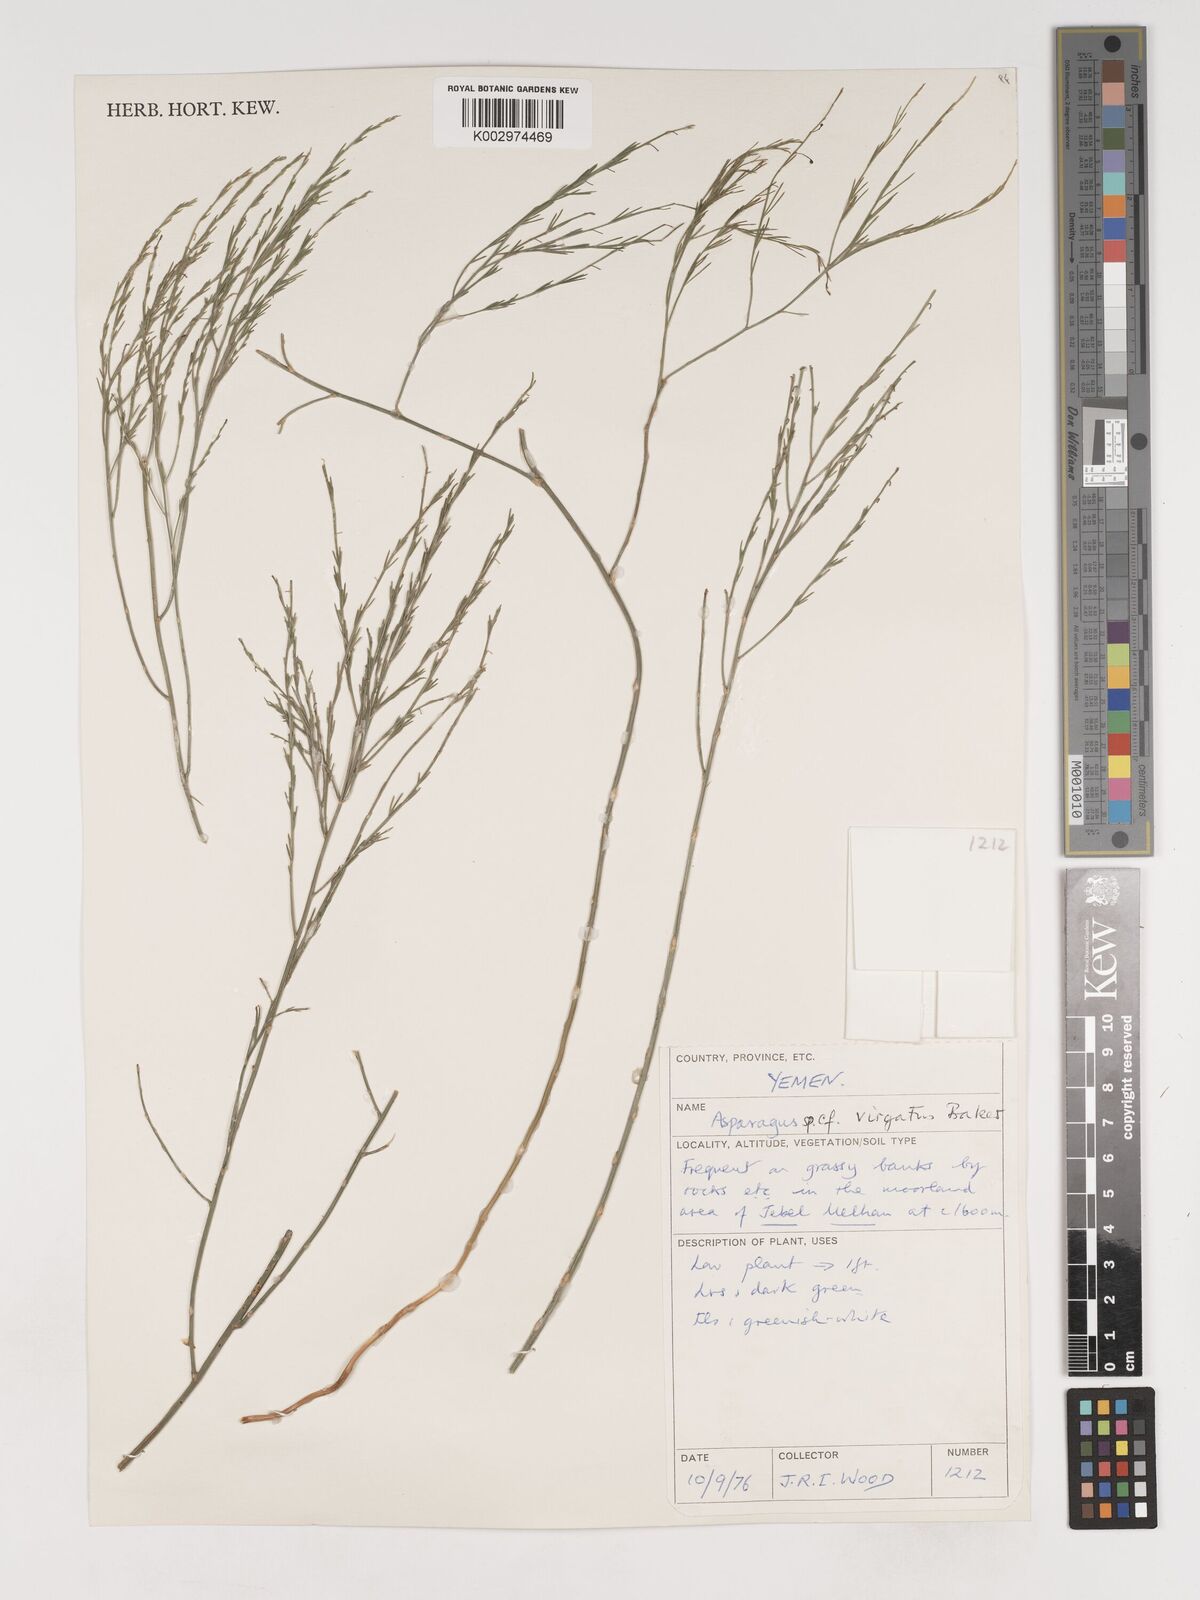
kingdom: Plantae
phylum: Tracheophyta
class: Liliopsida
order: Asparagales
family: Asparagaceae
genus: Asparagus
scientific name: Asparagus virgatus
